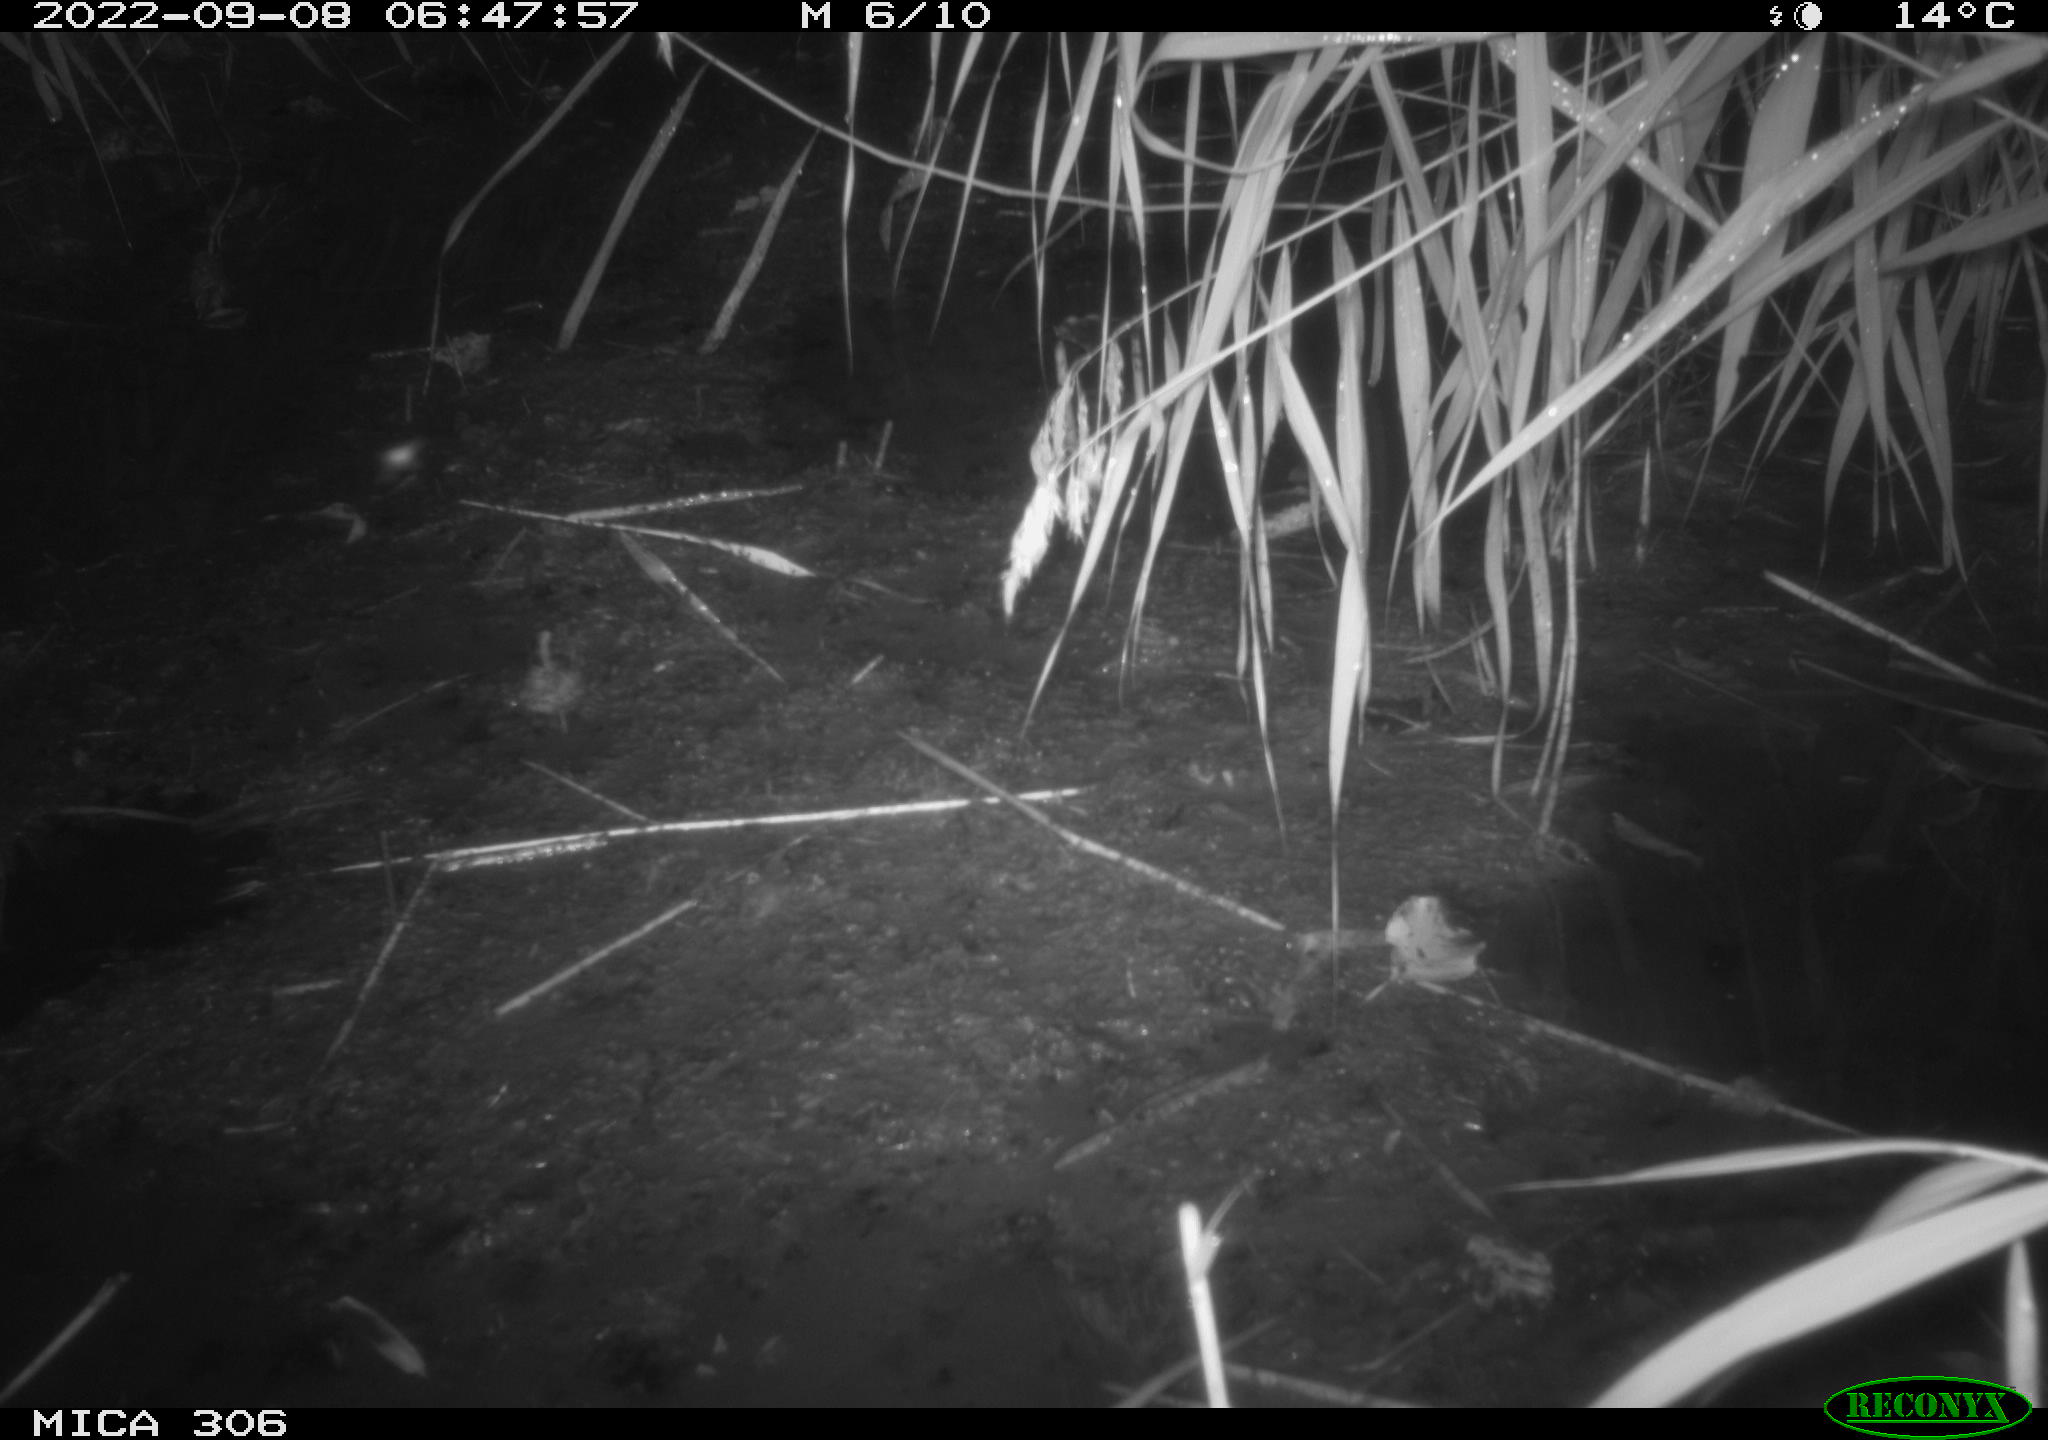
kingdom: Animalia
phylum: Chordata
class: Mammalia
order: Rodentia
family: Muridae
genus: Rattus
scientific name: Rattus norvegicus
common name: Brown rat
